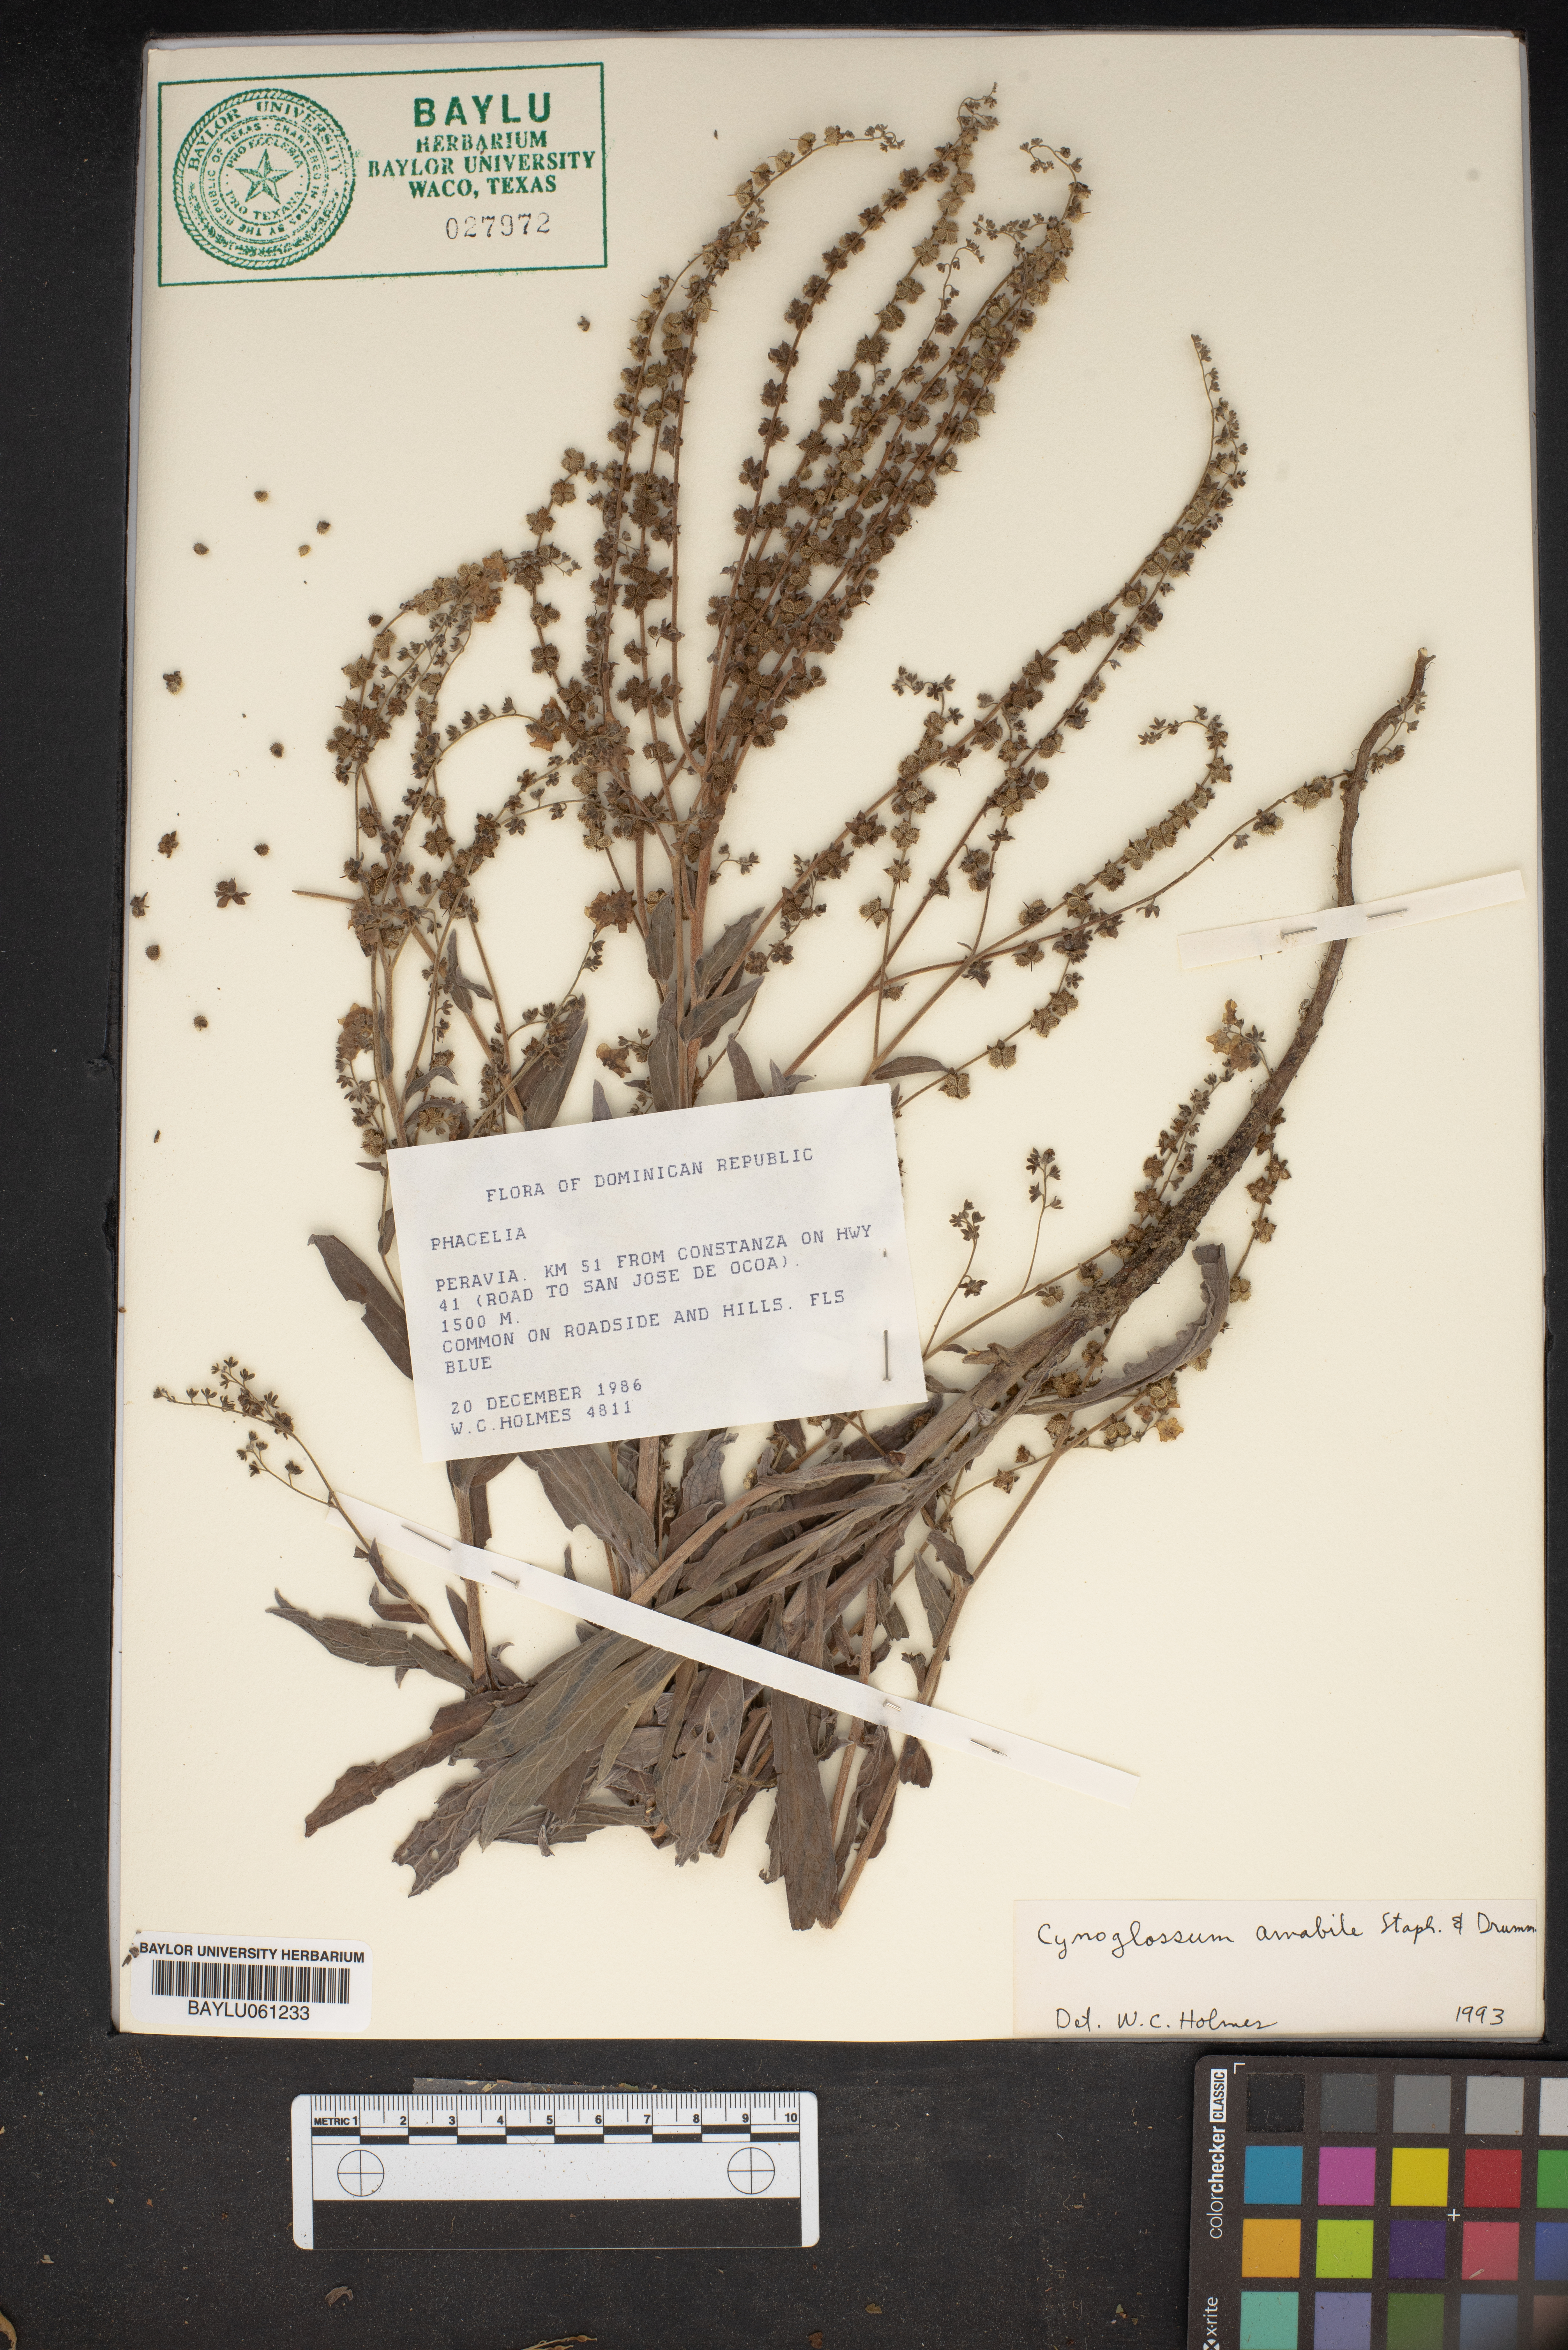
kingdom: Plantae
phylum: Tracheophyta
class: Magnoliopsida
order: Boraginales
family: Hydrophyllaceae
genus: Phacelia
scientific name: Phacelia
